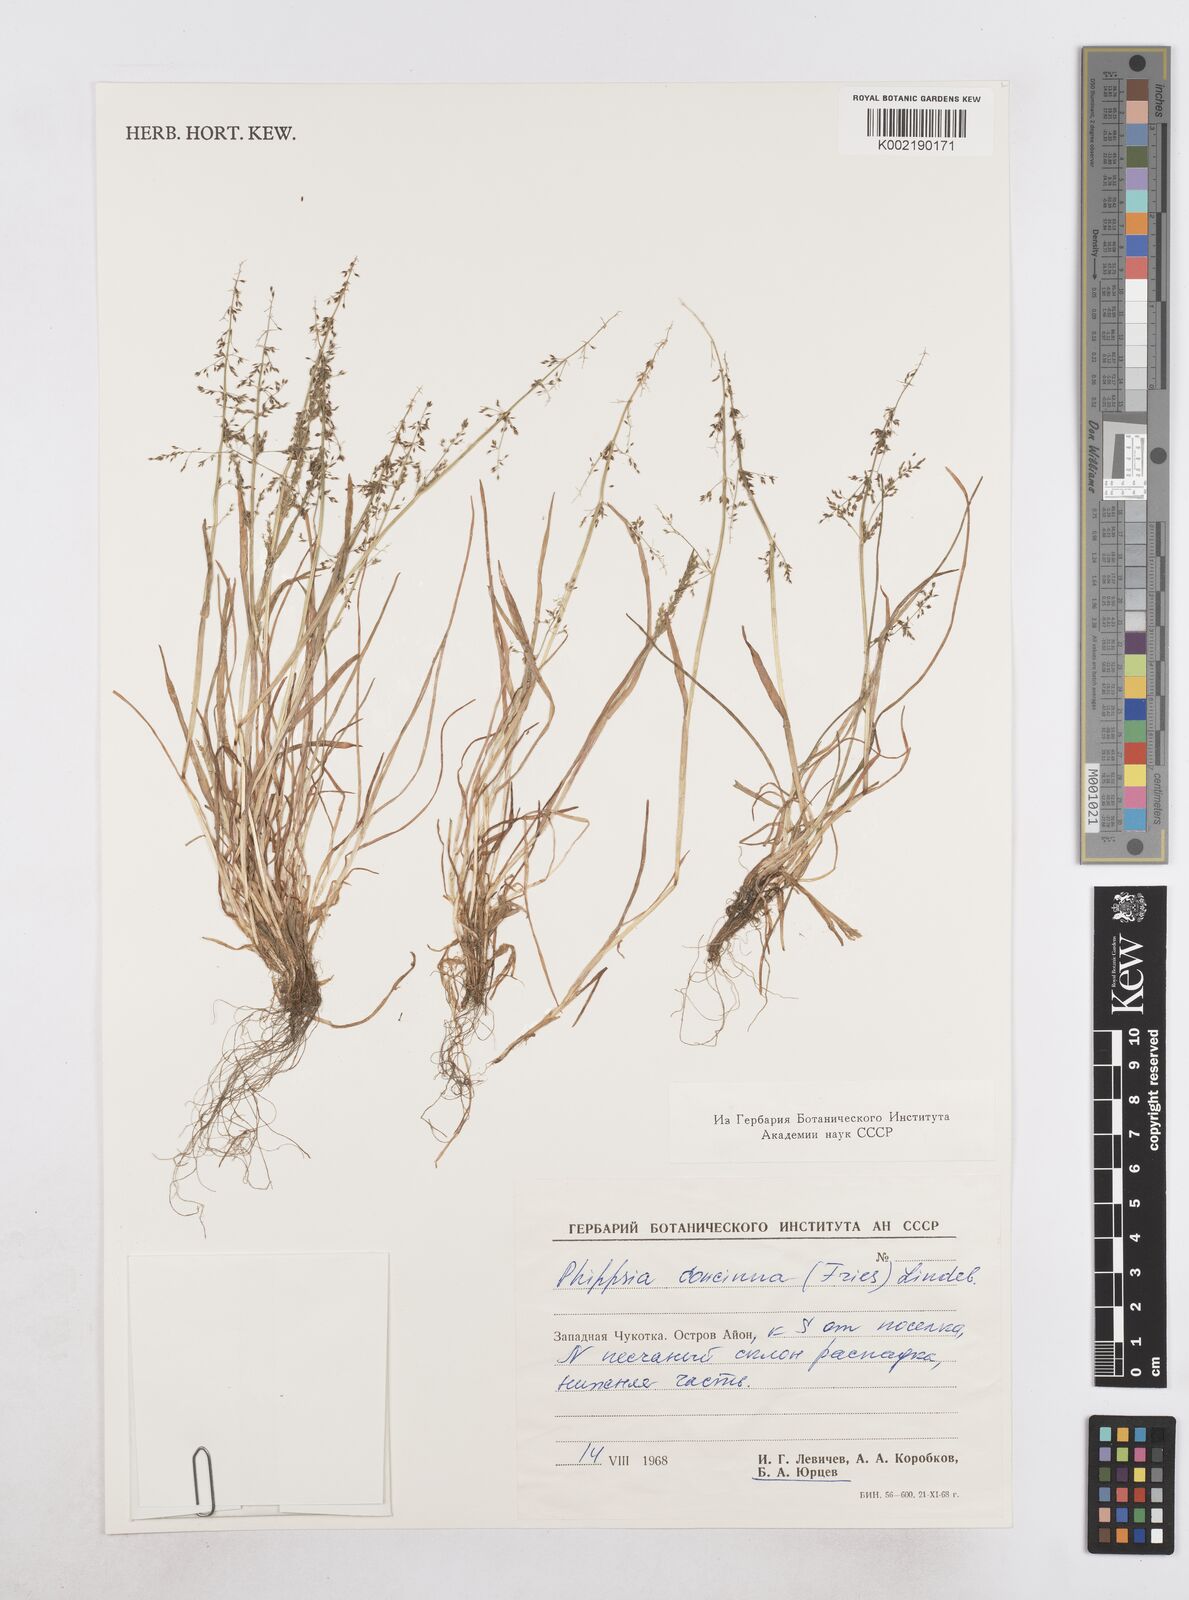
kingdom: Plantae
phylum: Tracheophyta
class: Liliopsida
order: Poales
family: Poaceae
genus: Phippsia
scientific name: Phippsia concinna
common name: Snowgrass
